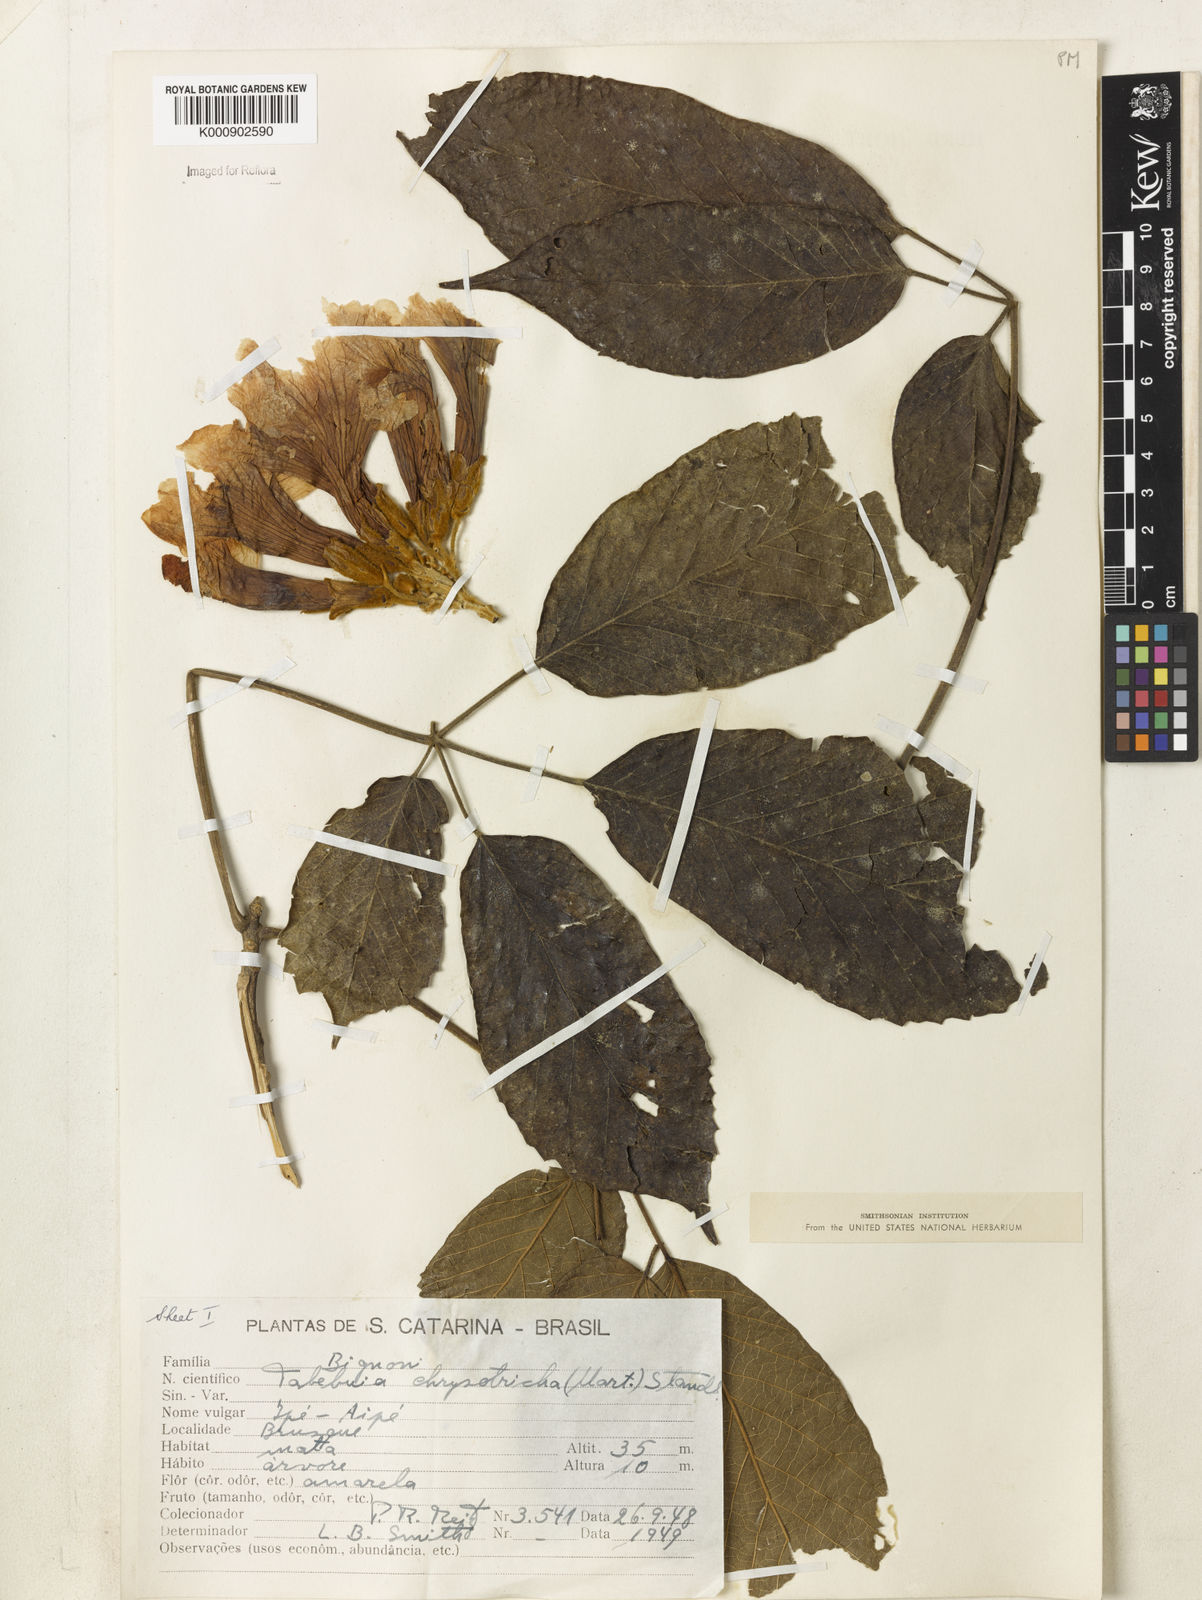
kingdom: Plantae
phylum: Tracheophyta
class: Magnoliopsida
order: Lamiales
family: Bignoniaceae
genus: Handroanthus
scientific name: Handroanthus chrysotrichus
